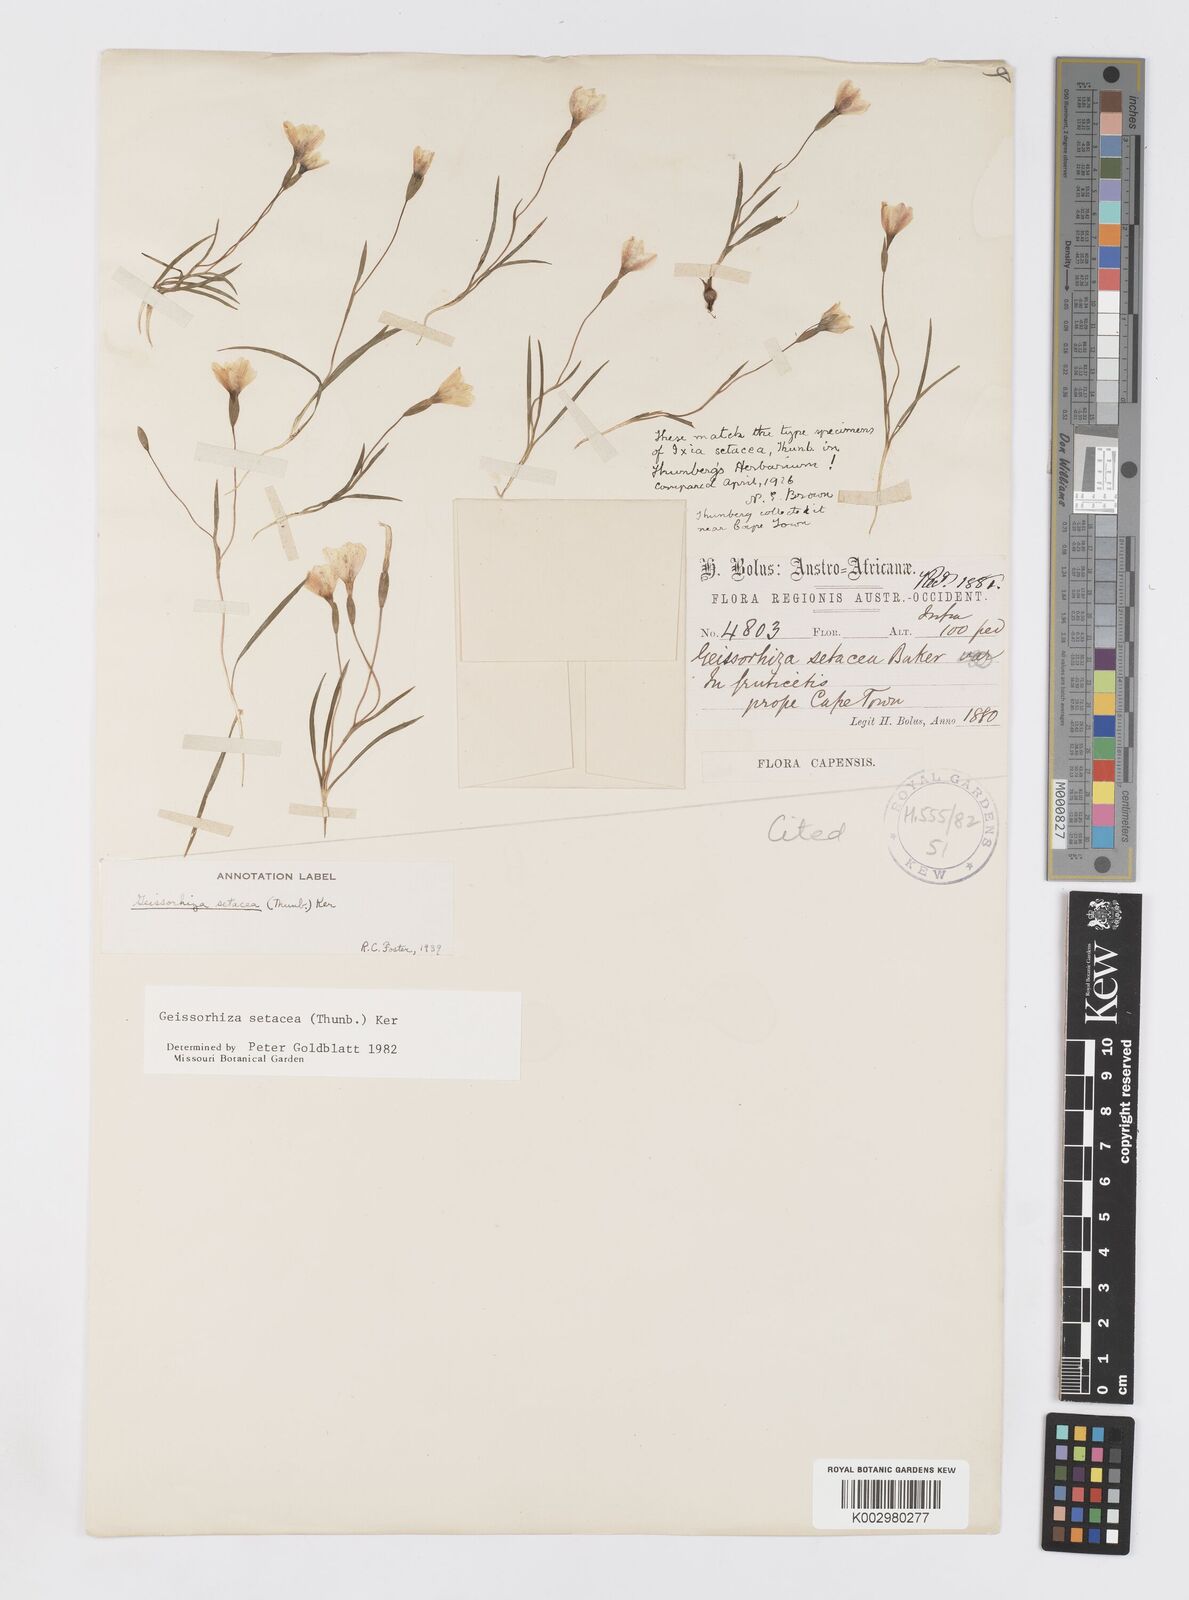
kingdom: Plantae
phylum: Tracheophyta
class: Liliopsida
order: Asparagales
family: Iridaceae
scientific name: Iridaceae
